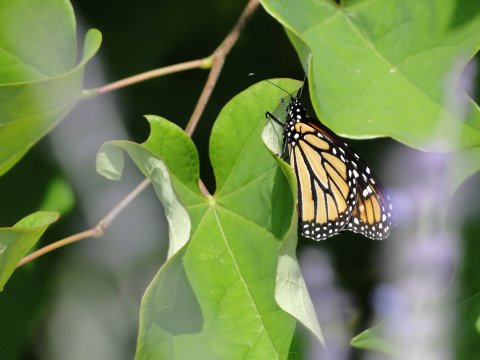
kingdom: Animalia
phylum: Arthropoda
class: Insecta
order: Lepidoptera
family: Nymphalidae
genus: Danaus
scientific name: Danaus plexippus
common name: Monarch
